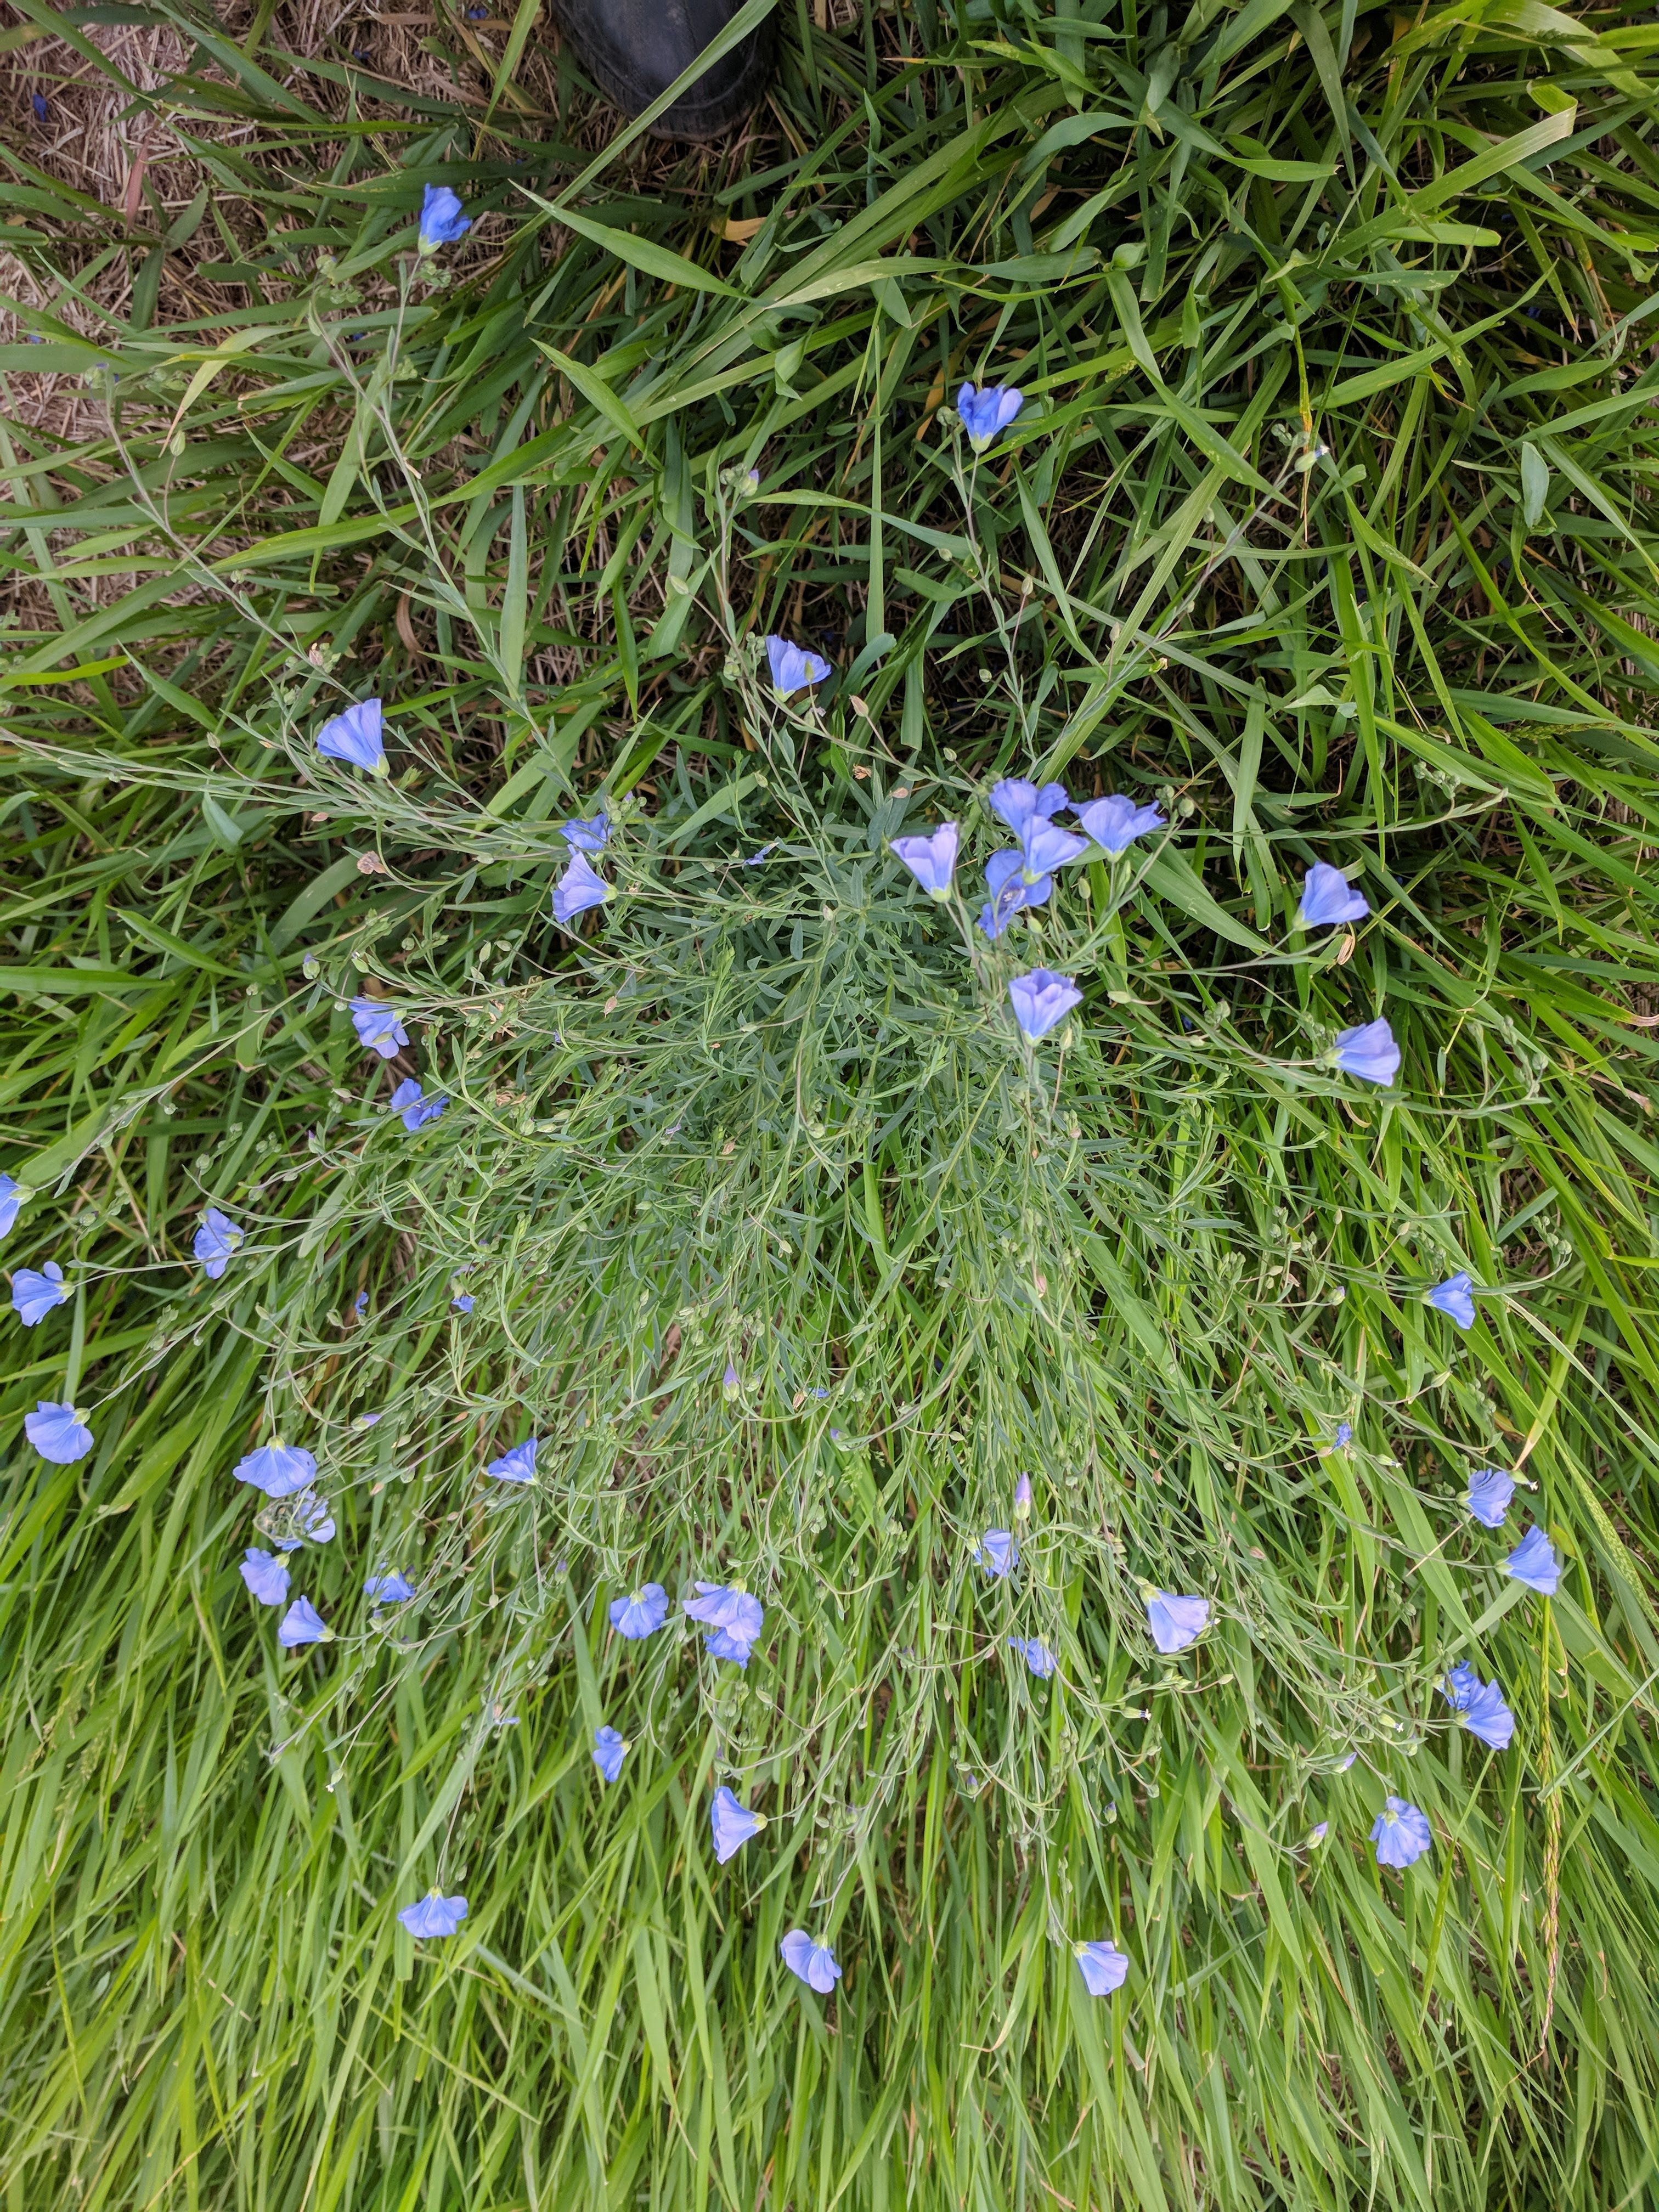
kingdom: Plantae
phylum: Tracheophyta
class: Magnoliopsida
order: Malpighiales
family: Linaceae
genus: Linum
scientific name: Linum lewisii
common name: Prairie flax
